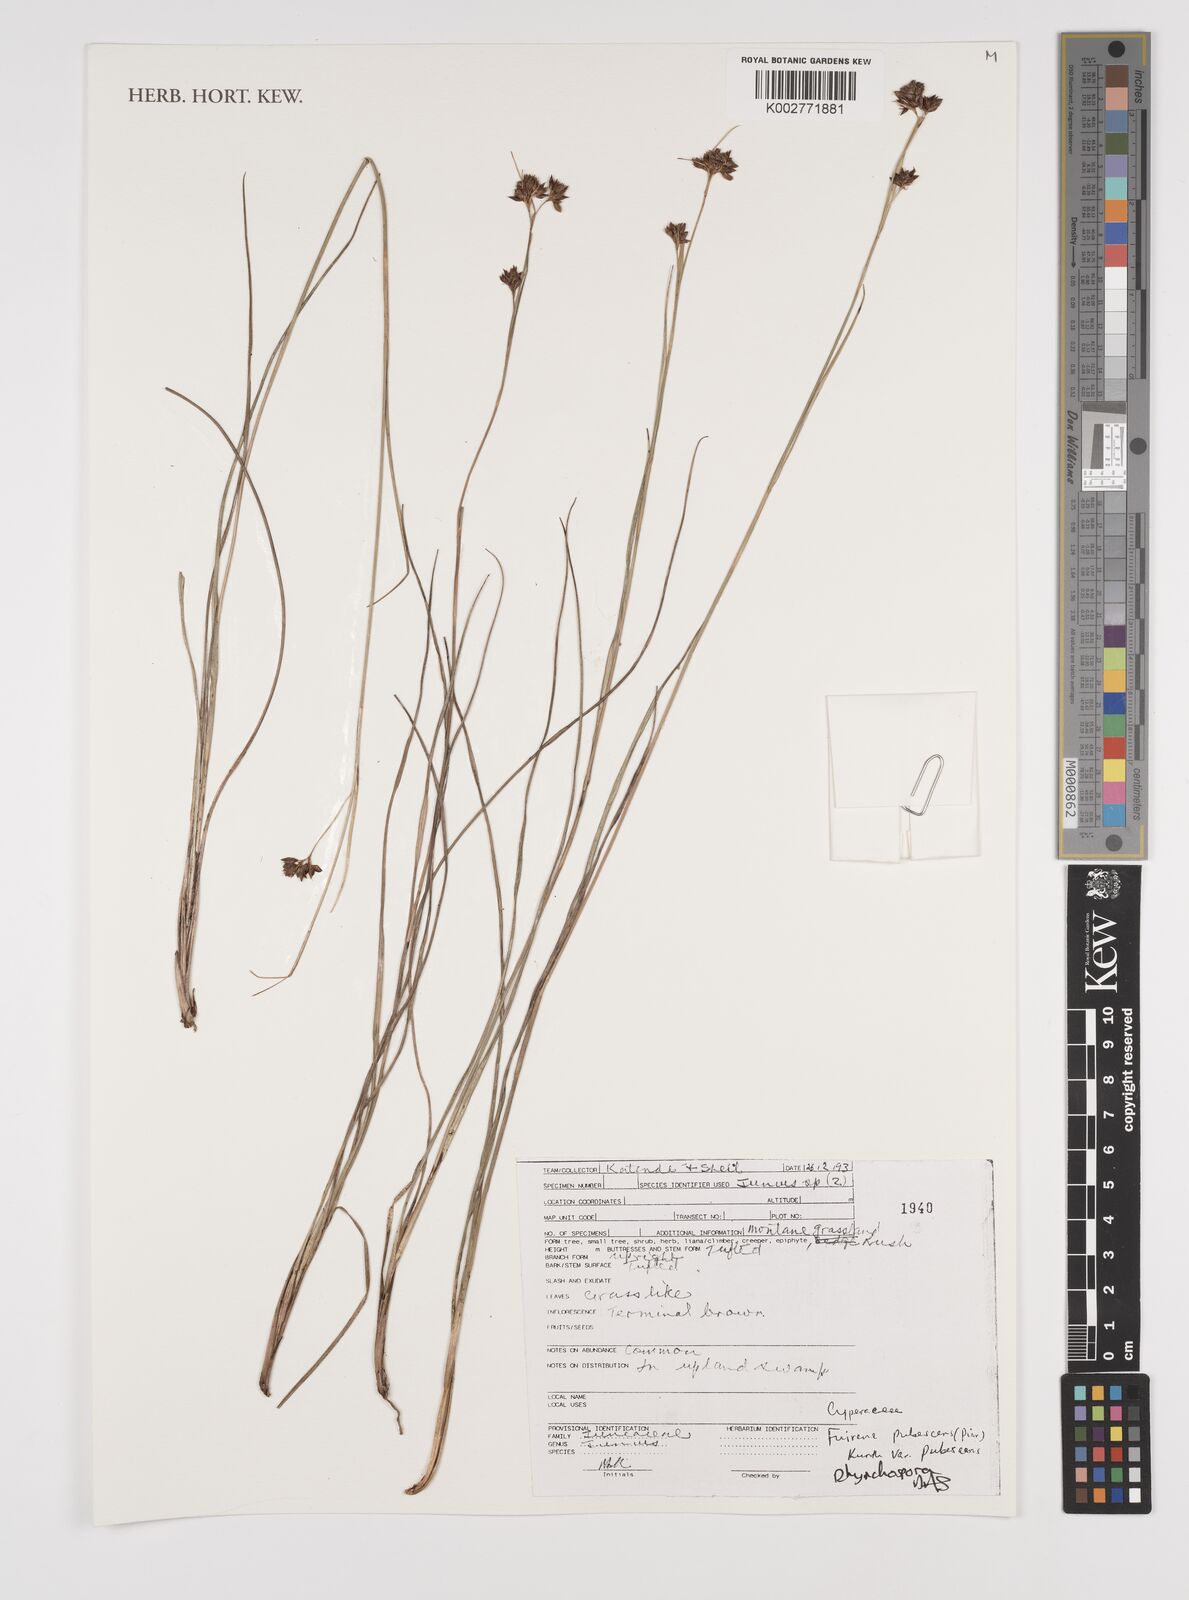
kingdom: Plantae
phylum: Tracheophyta
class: Liliopsida
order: Poales
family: Cyperaceae
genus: Rhynchospora
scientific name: Rhynchospora
